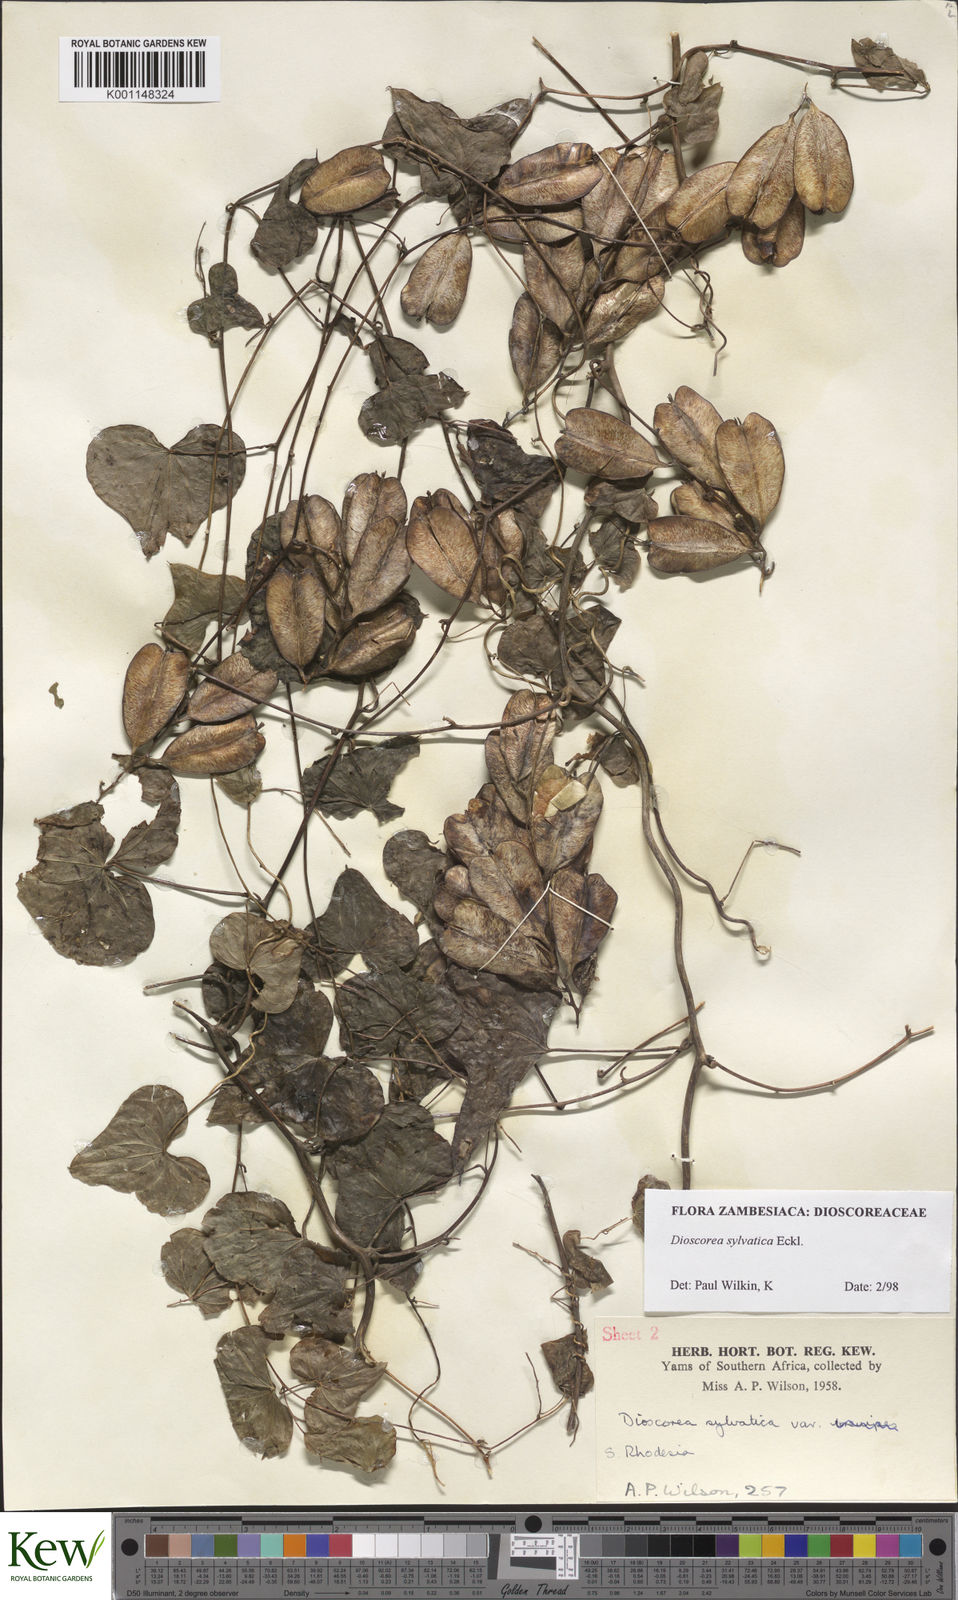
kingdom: Plantae
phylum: Tracheophyta
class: Liliopsida
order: Dioscoreales
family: Dioscoreaceae
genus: Dioscorea
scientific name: Dioscorea sylvatica
